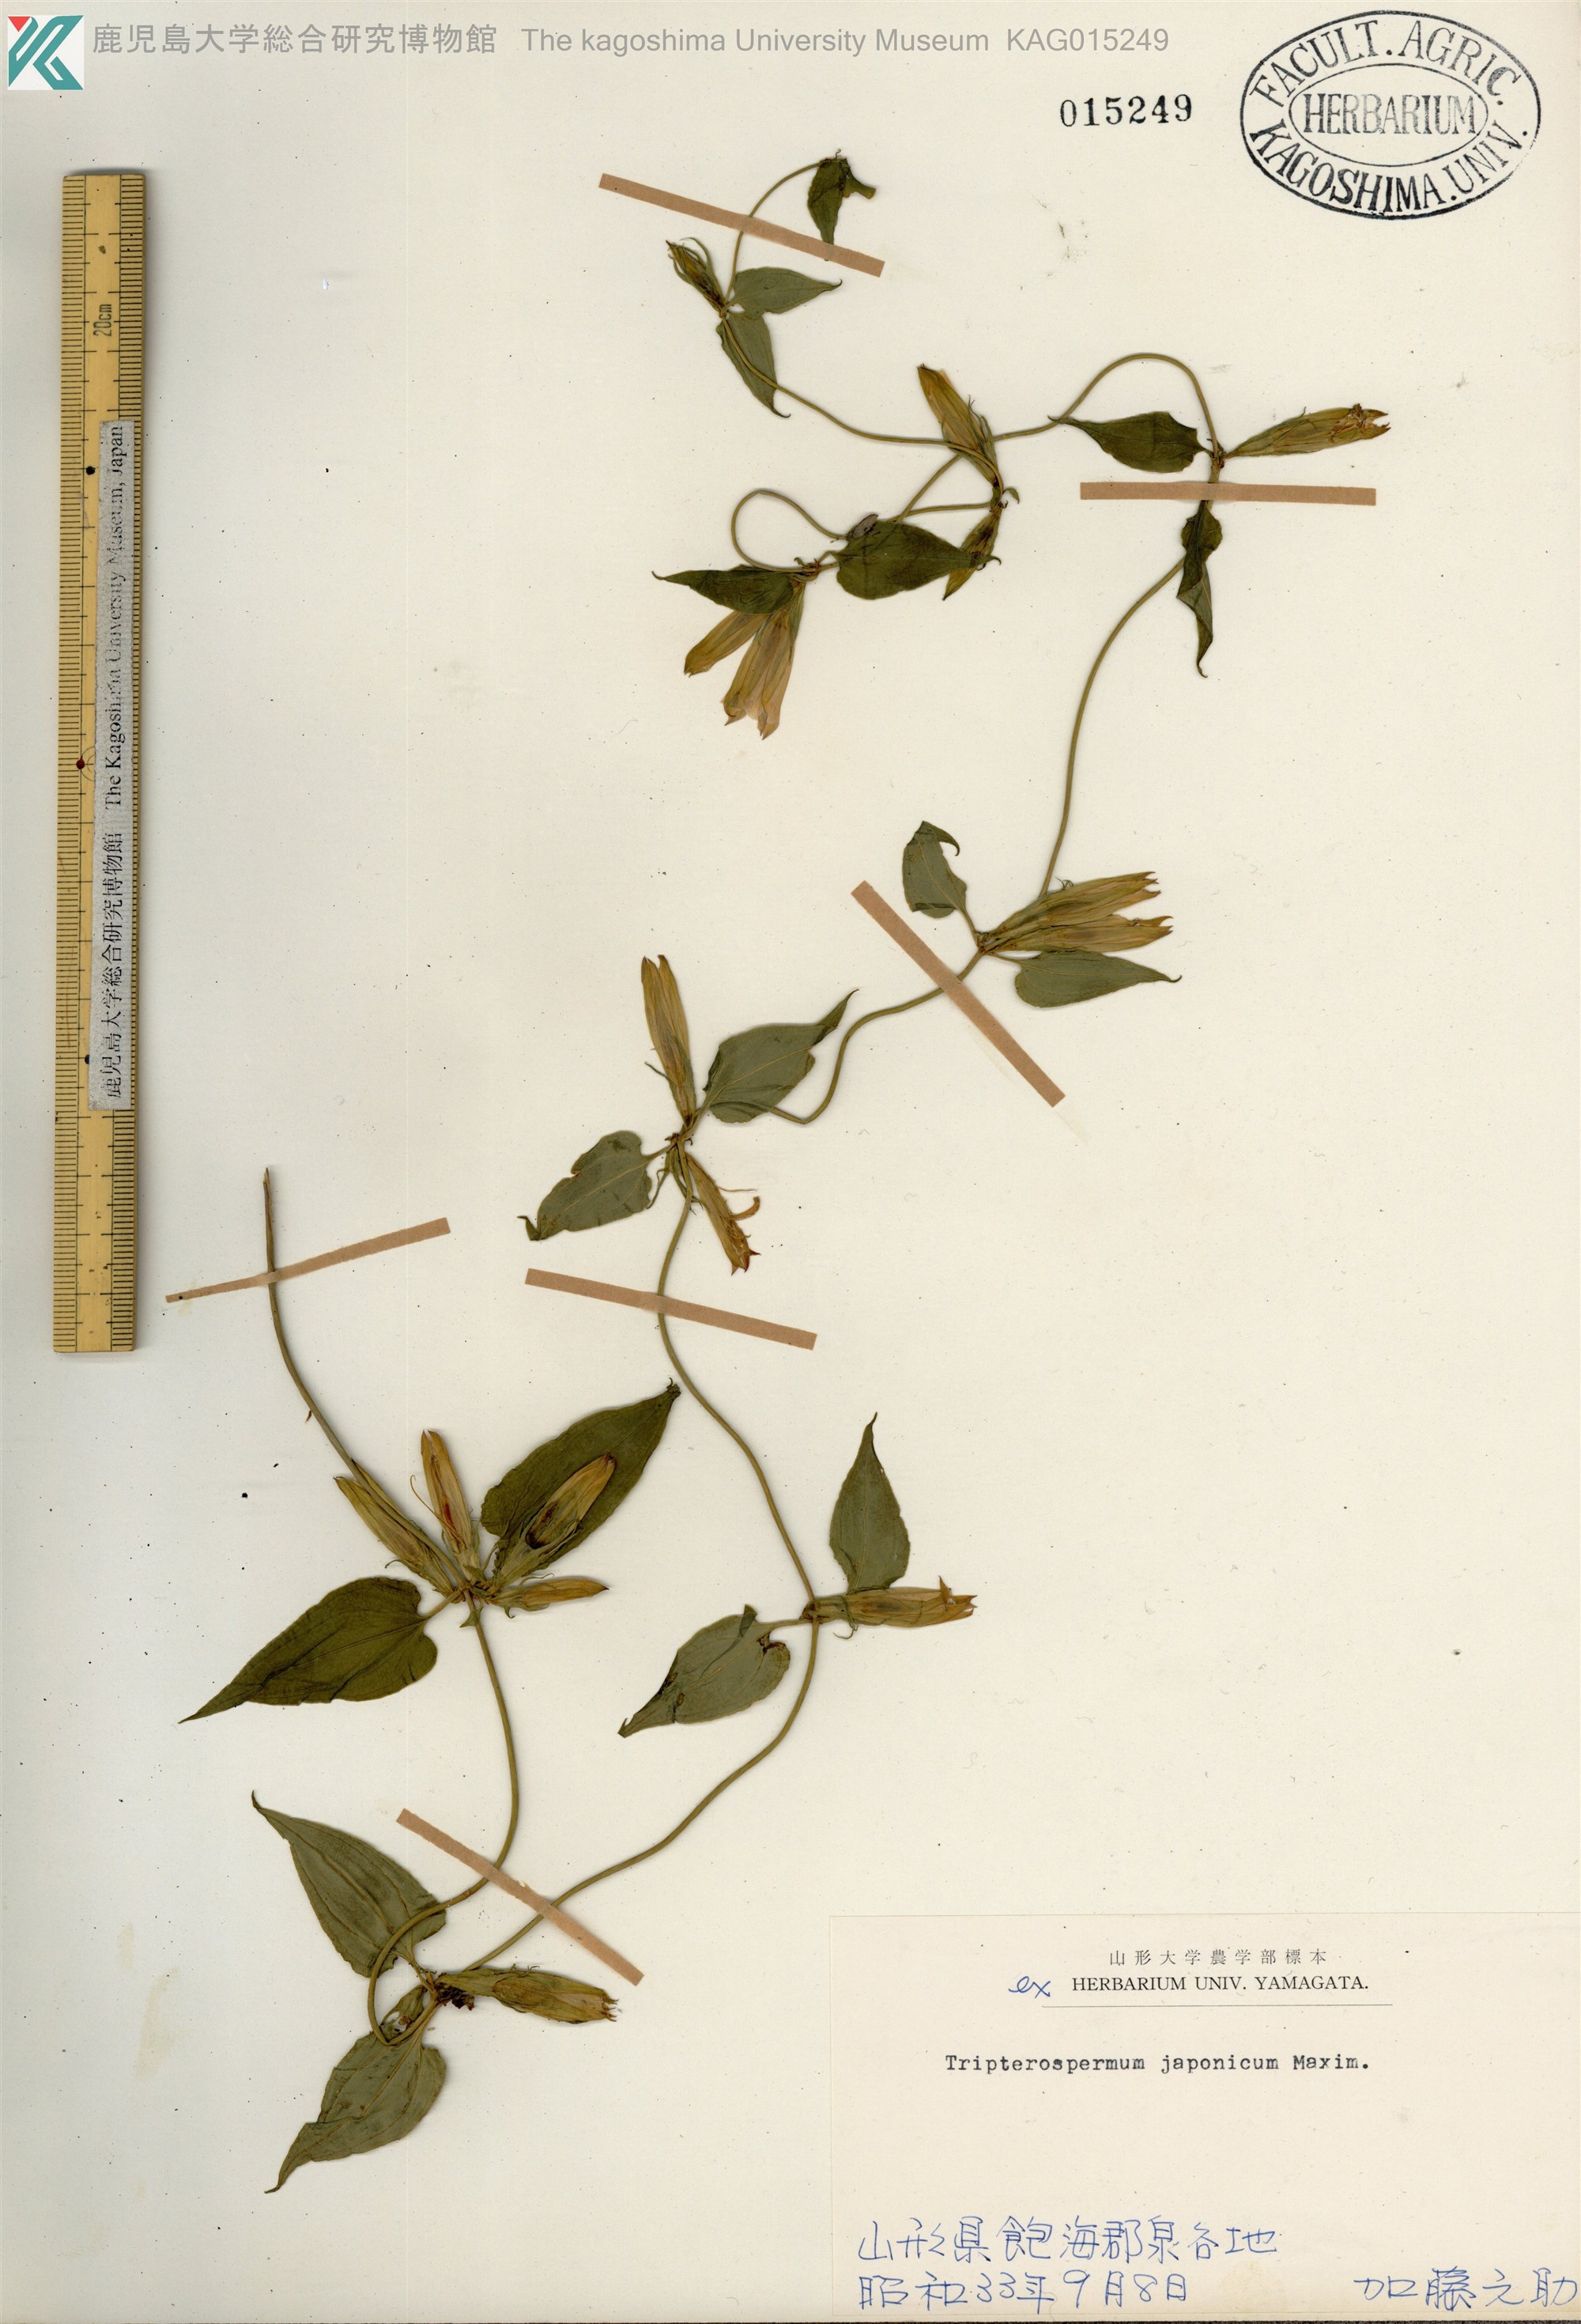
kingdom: Plantae
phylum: Tracheophyta
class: Magnoliopsida
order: Gentianales
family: Gentianaceae
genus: Tripterospermum
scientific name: Tripterospermum trinervium
